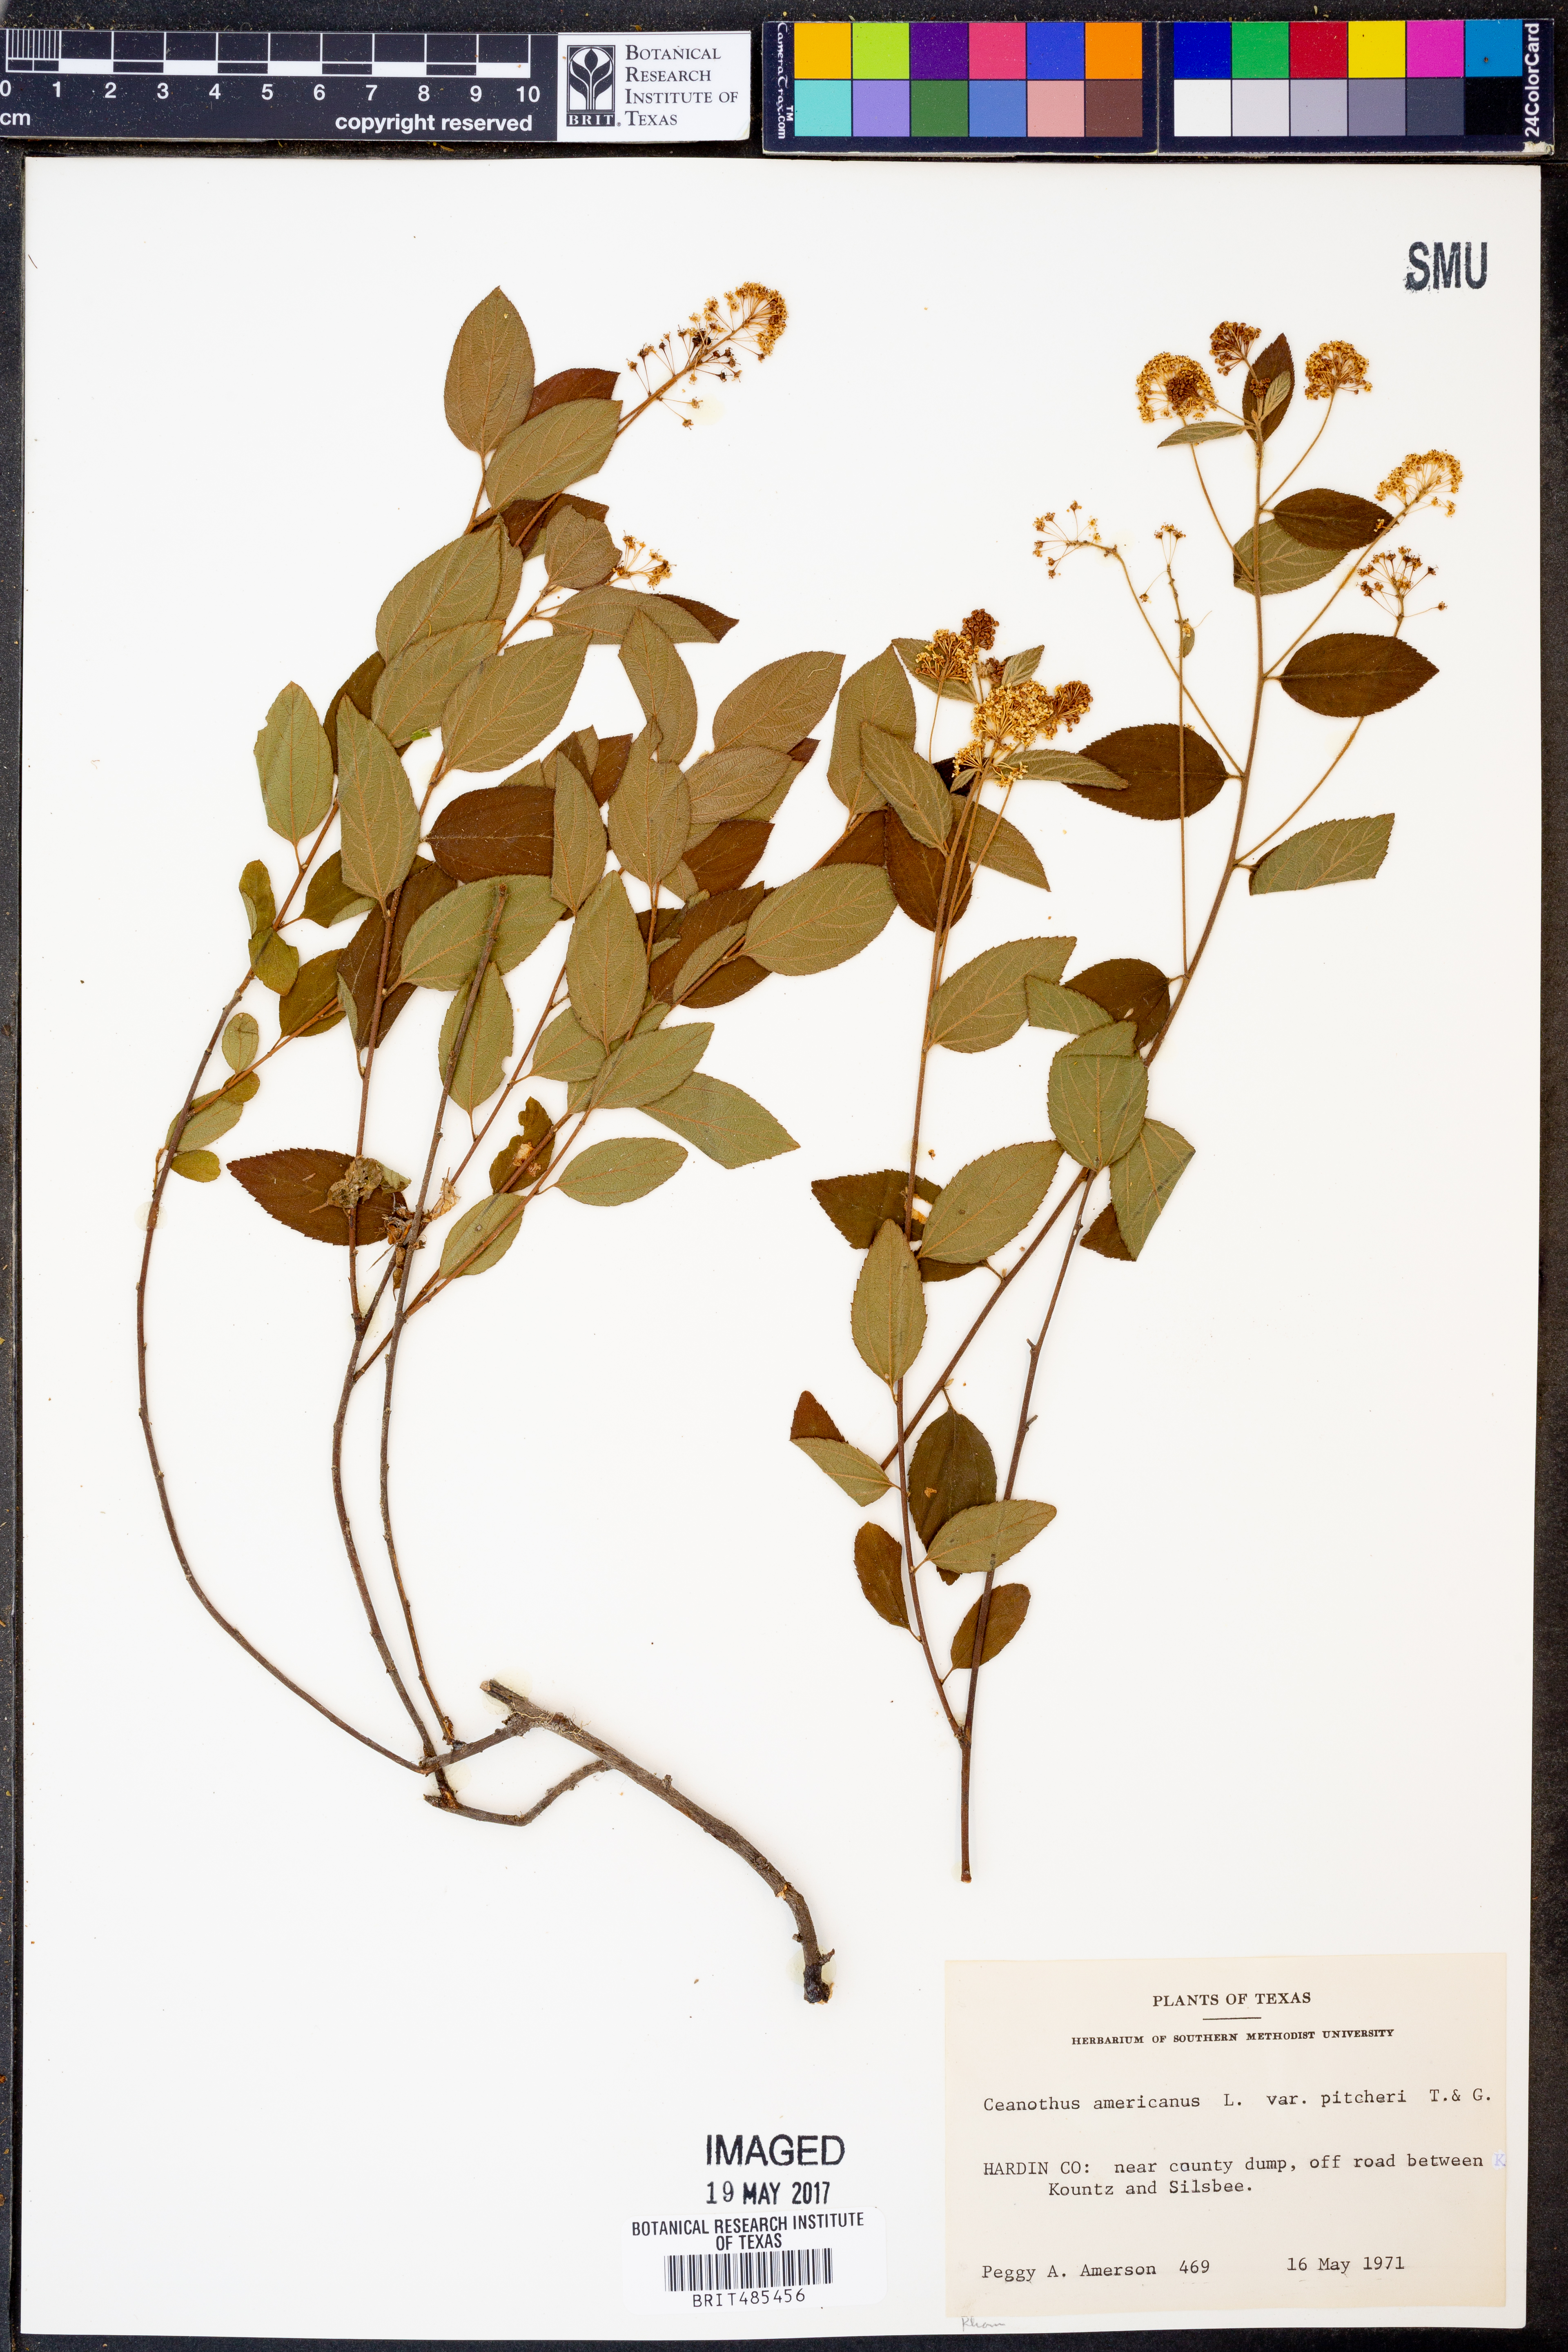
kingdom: Plantae
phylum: Tracheophyta
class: Magnoliopsida
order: Rosales
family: Rhamnaceae
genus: Ceanothus
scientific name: Ceanothus americanus
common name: Redroot
